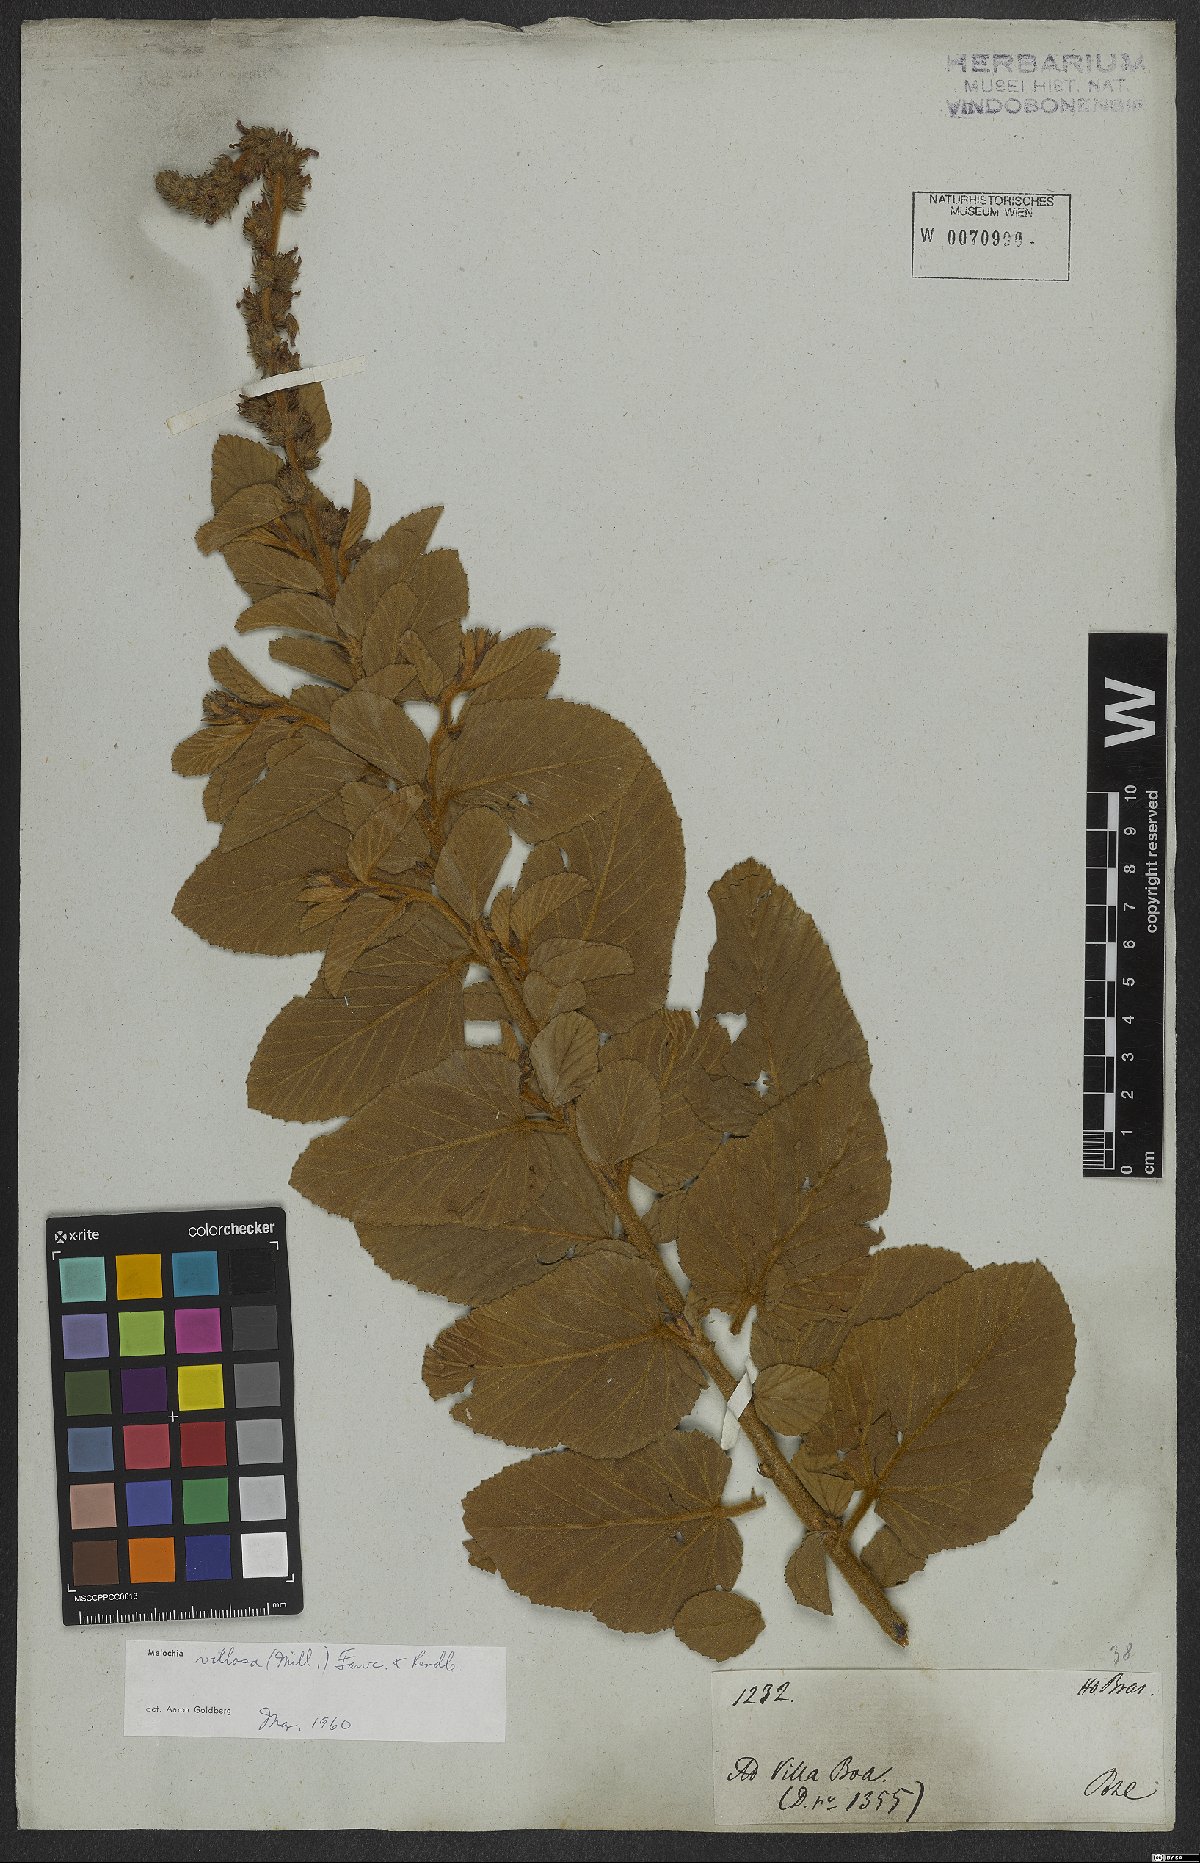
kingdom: Plantae
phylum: Tracheophyta
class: Magnoliopsida
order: Malvales
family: Malvaceae
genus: Melochia
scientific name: Melochia spicata
